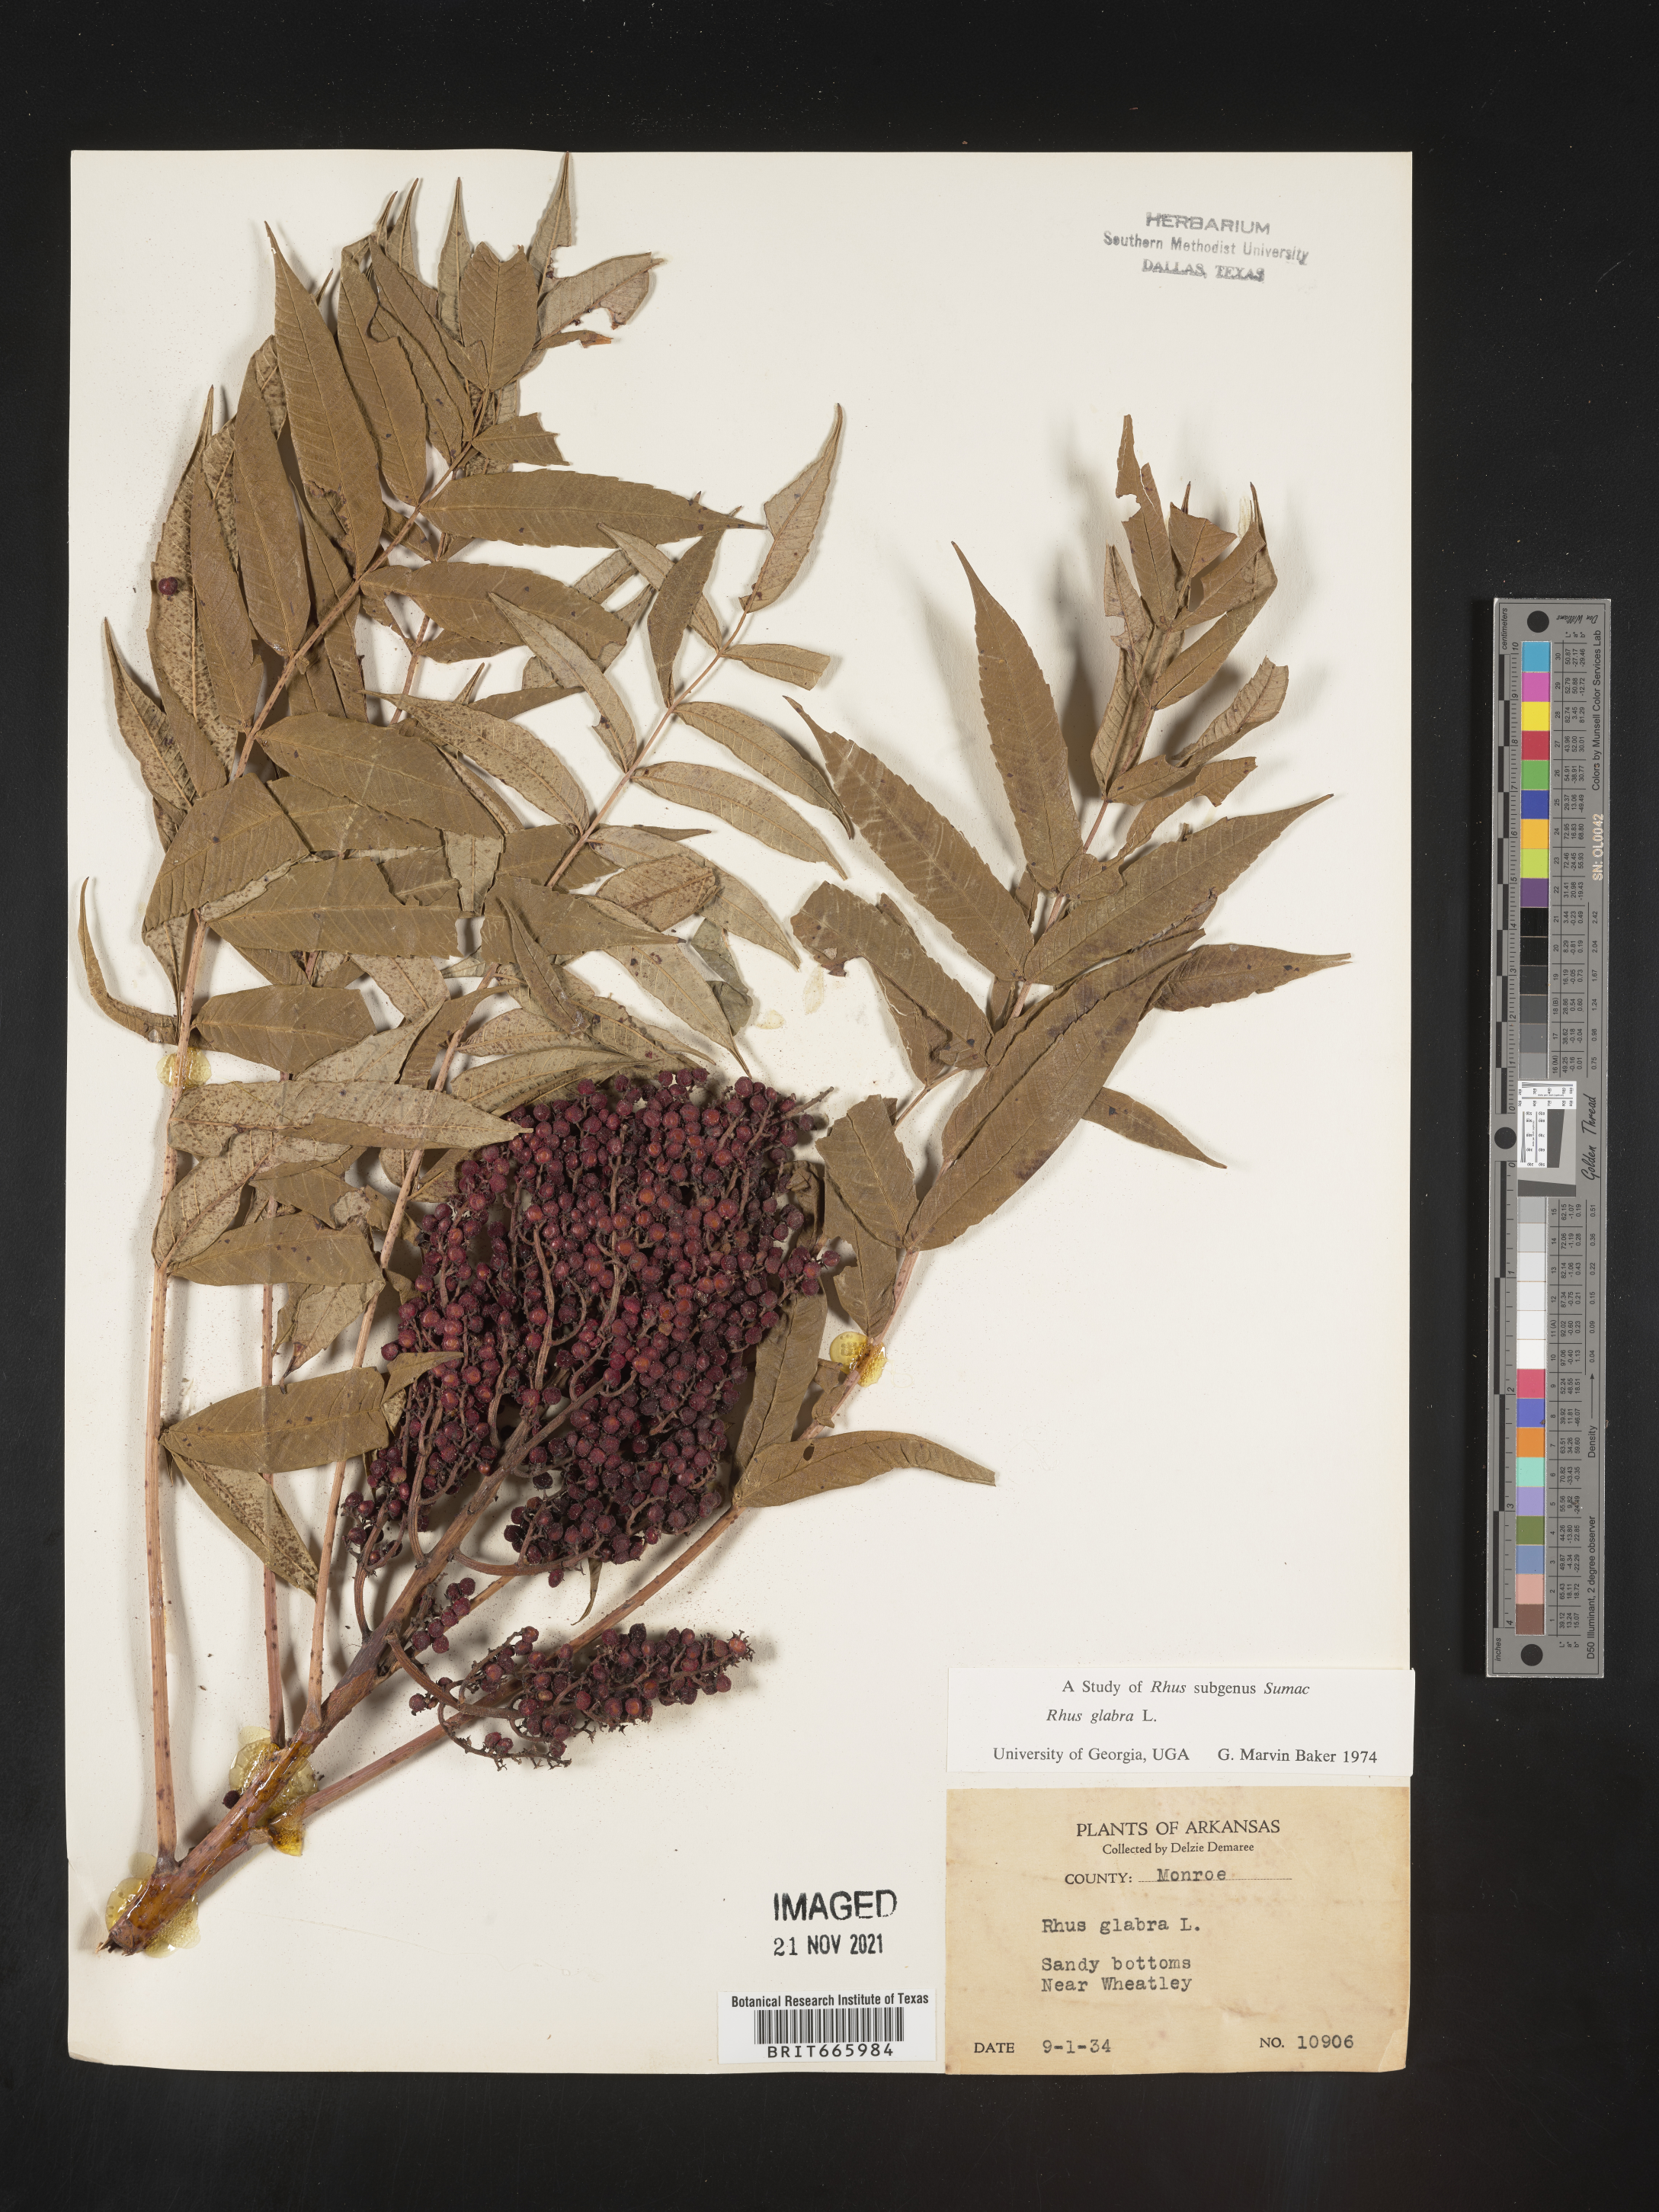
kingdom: Plantae
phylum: Tracheophyta
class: Magnoliopsida
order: Sapindales
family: Anacardiaceae
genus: Rhus
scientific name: Rhus glabra
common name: Scarlet sumac
